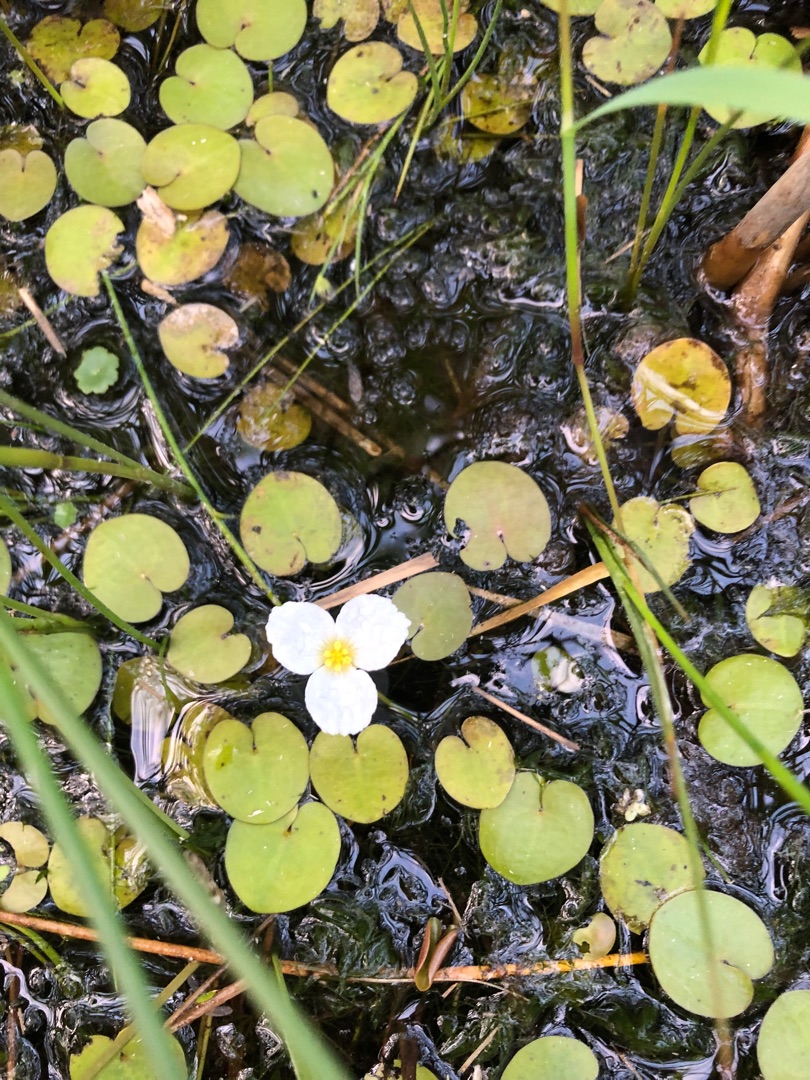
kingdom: Plantae
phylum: Tracheophyta
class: Liliopsida
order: Alismatales
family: Hydrocharitaceae
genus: Hydrocharis
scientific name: Hydrocharis morsus-ranae
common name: Frøbid
